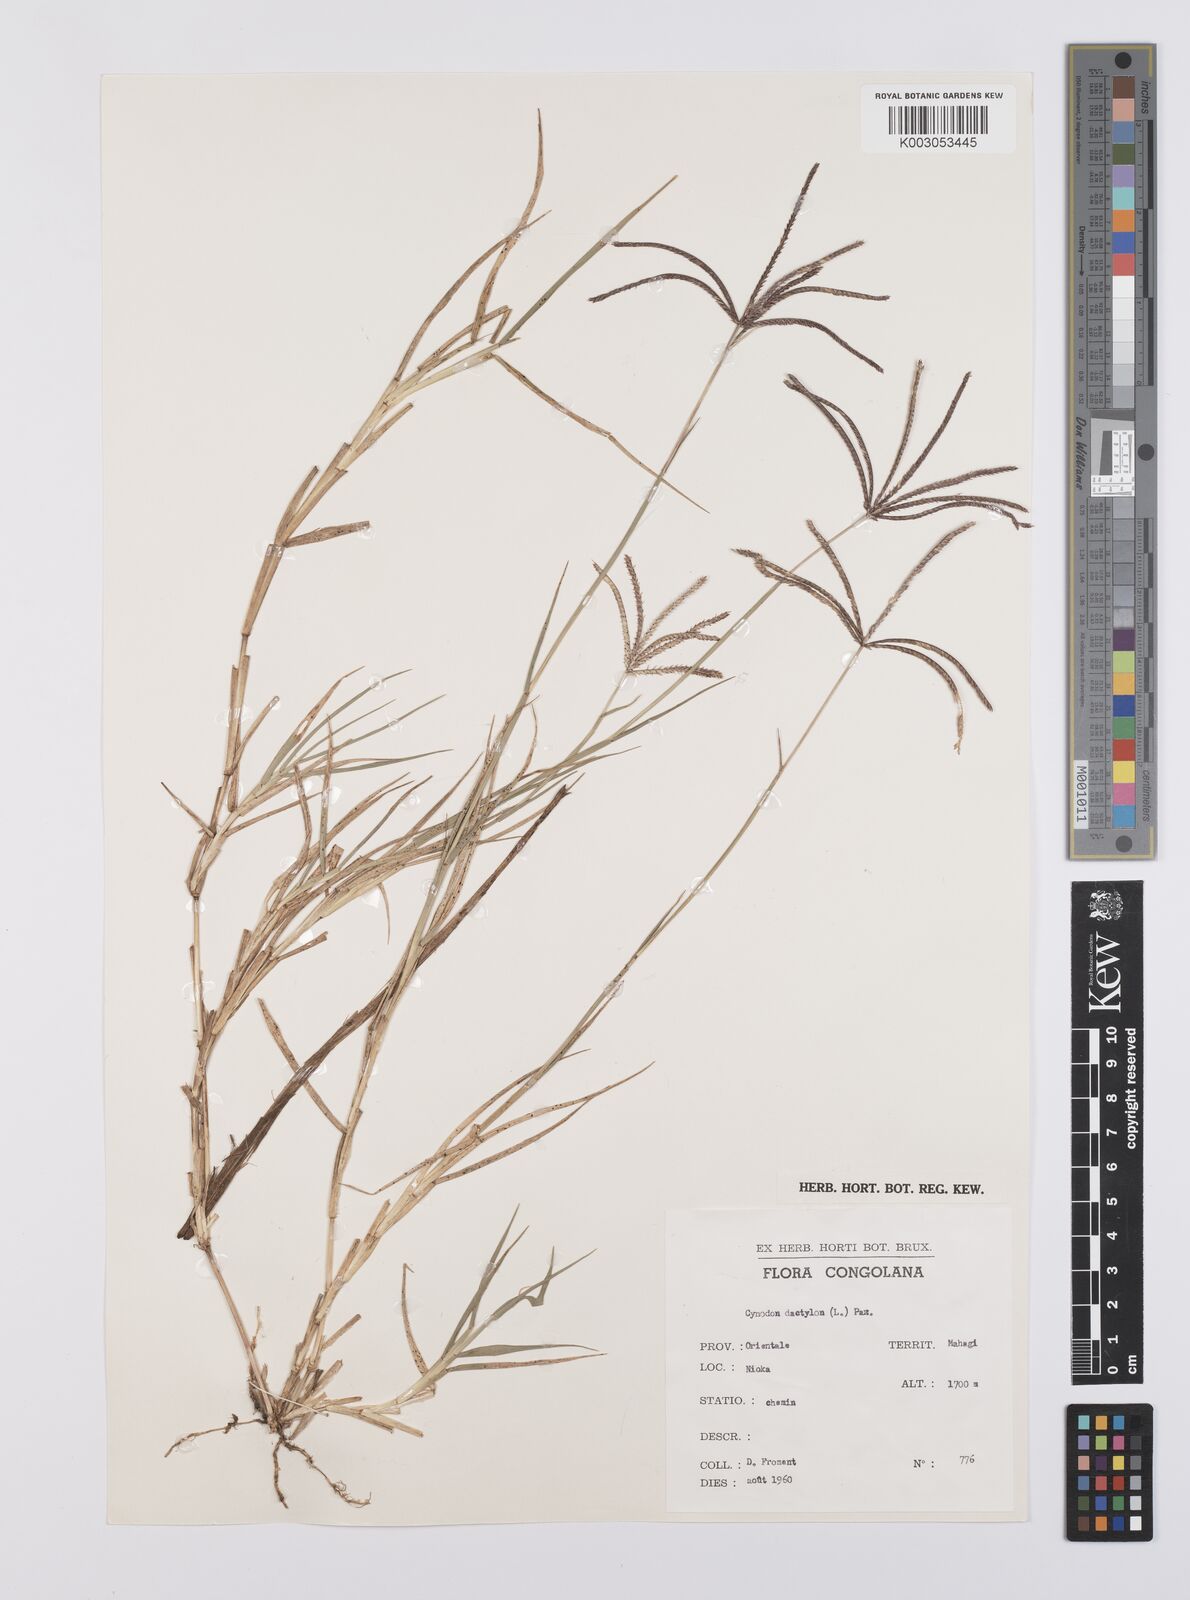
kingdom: Plantae
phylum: Tracheophyta
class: Liliopsida
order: Poales
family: Poaceae
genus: Cynodon
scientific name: Cynodon aethiopicus
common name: Ethiopian dogstooth grass
